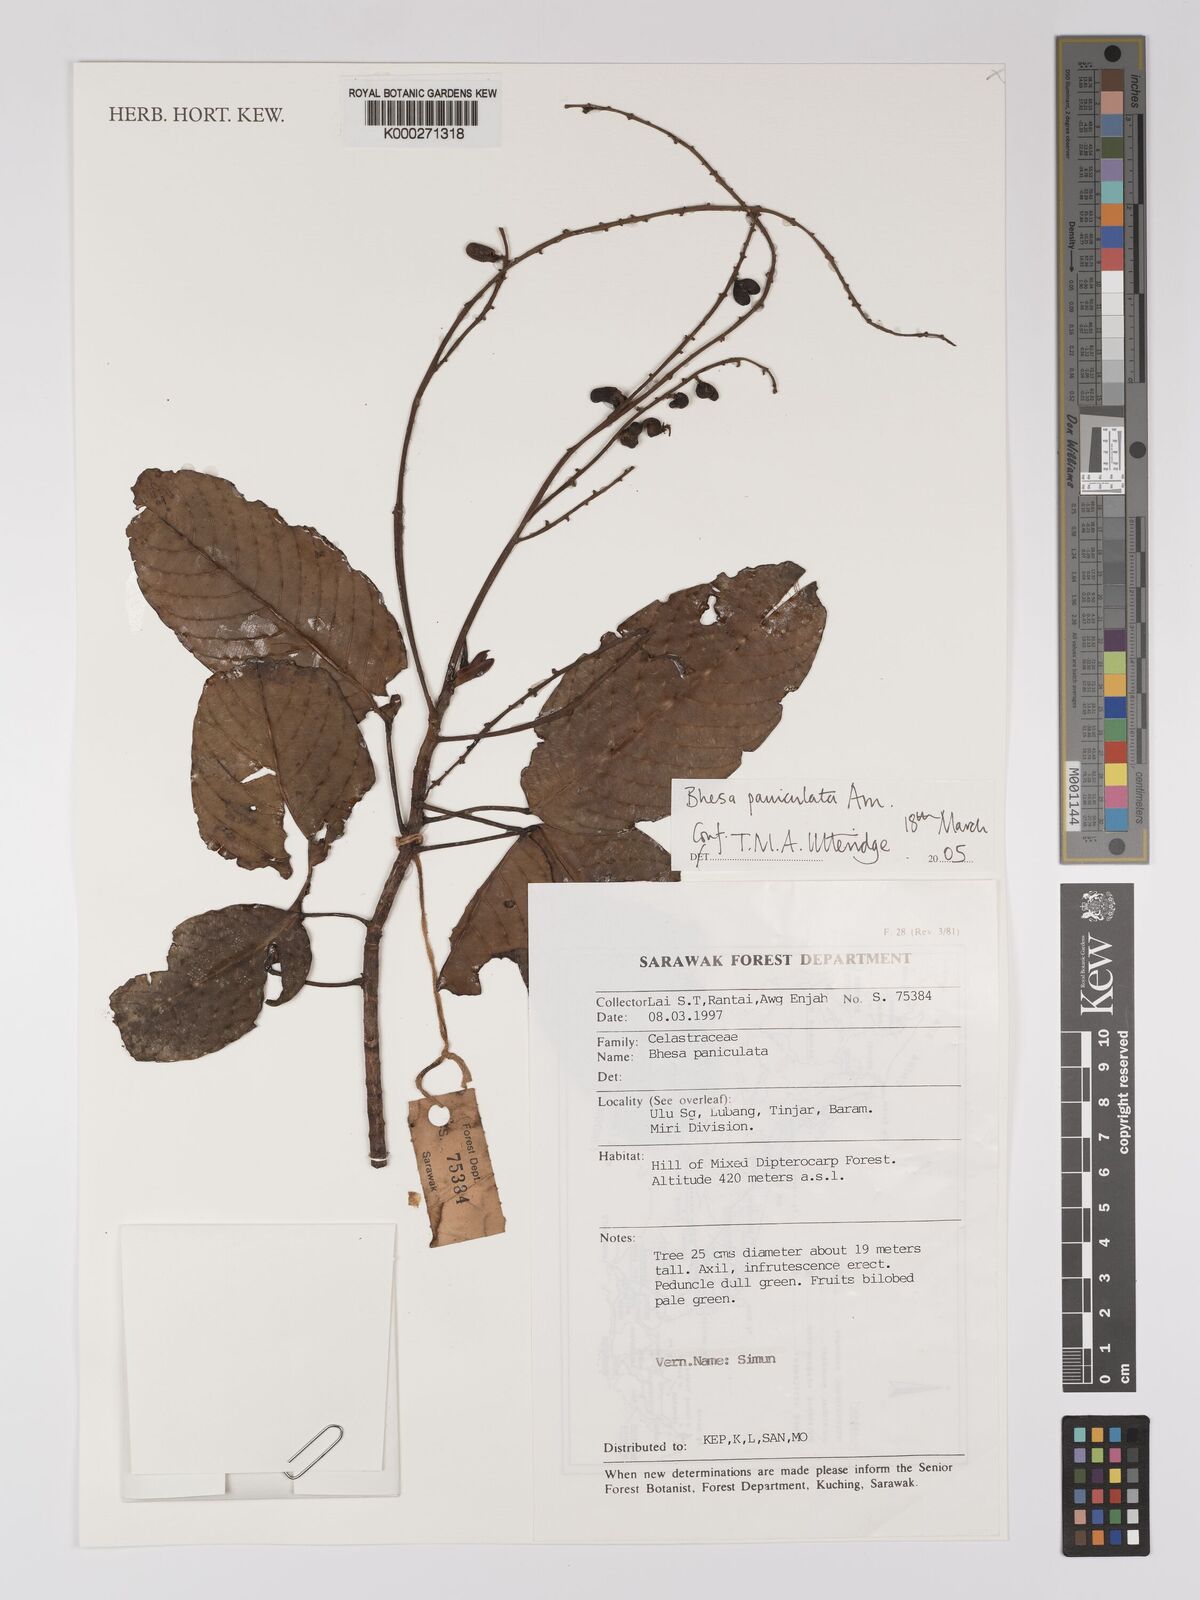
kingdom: Plantae
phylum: Tracheophyta
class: Magnoliopsida
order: Malpighiales
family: Centroplacaceae
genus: Bhesa
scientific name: Bhesa paniculata
